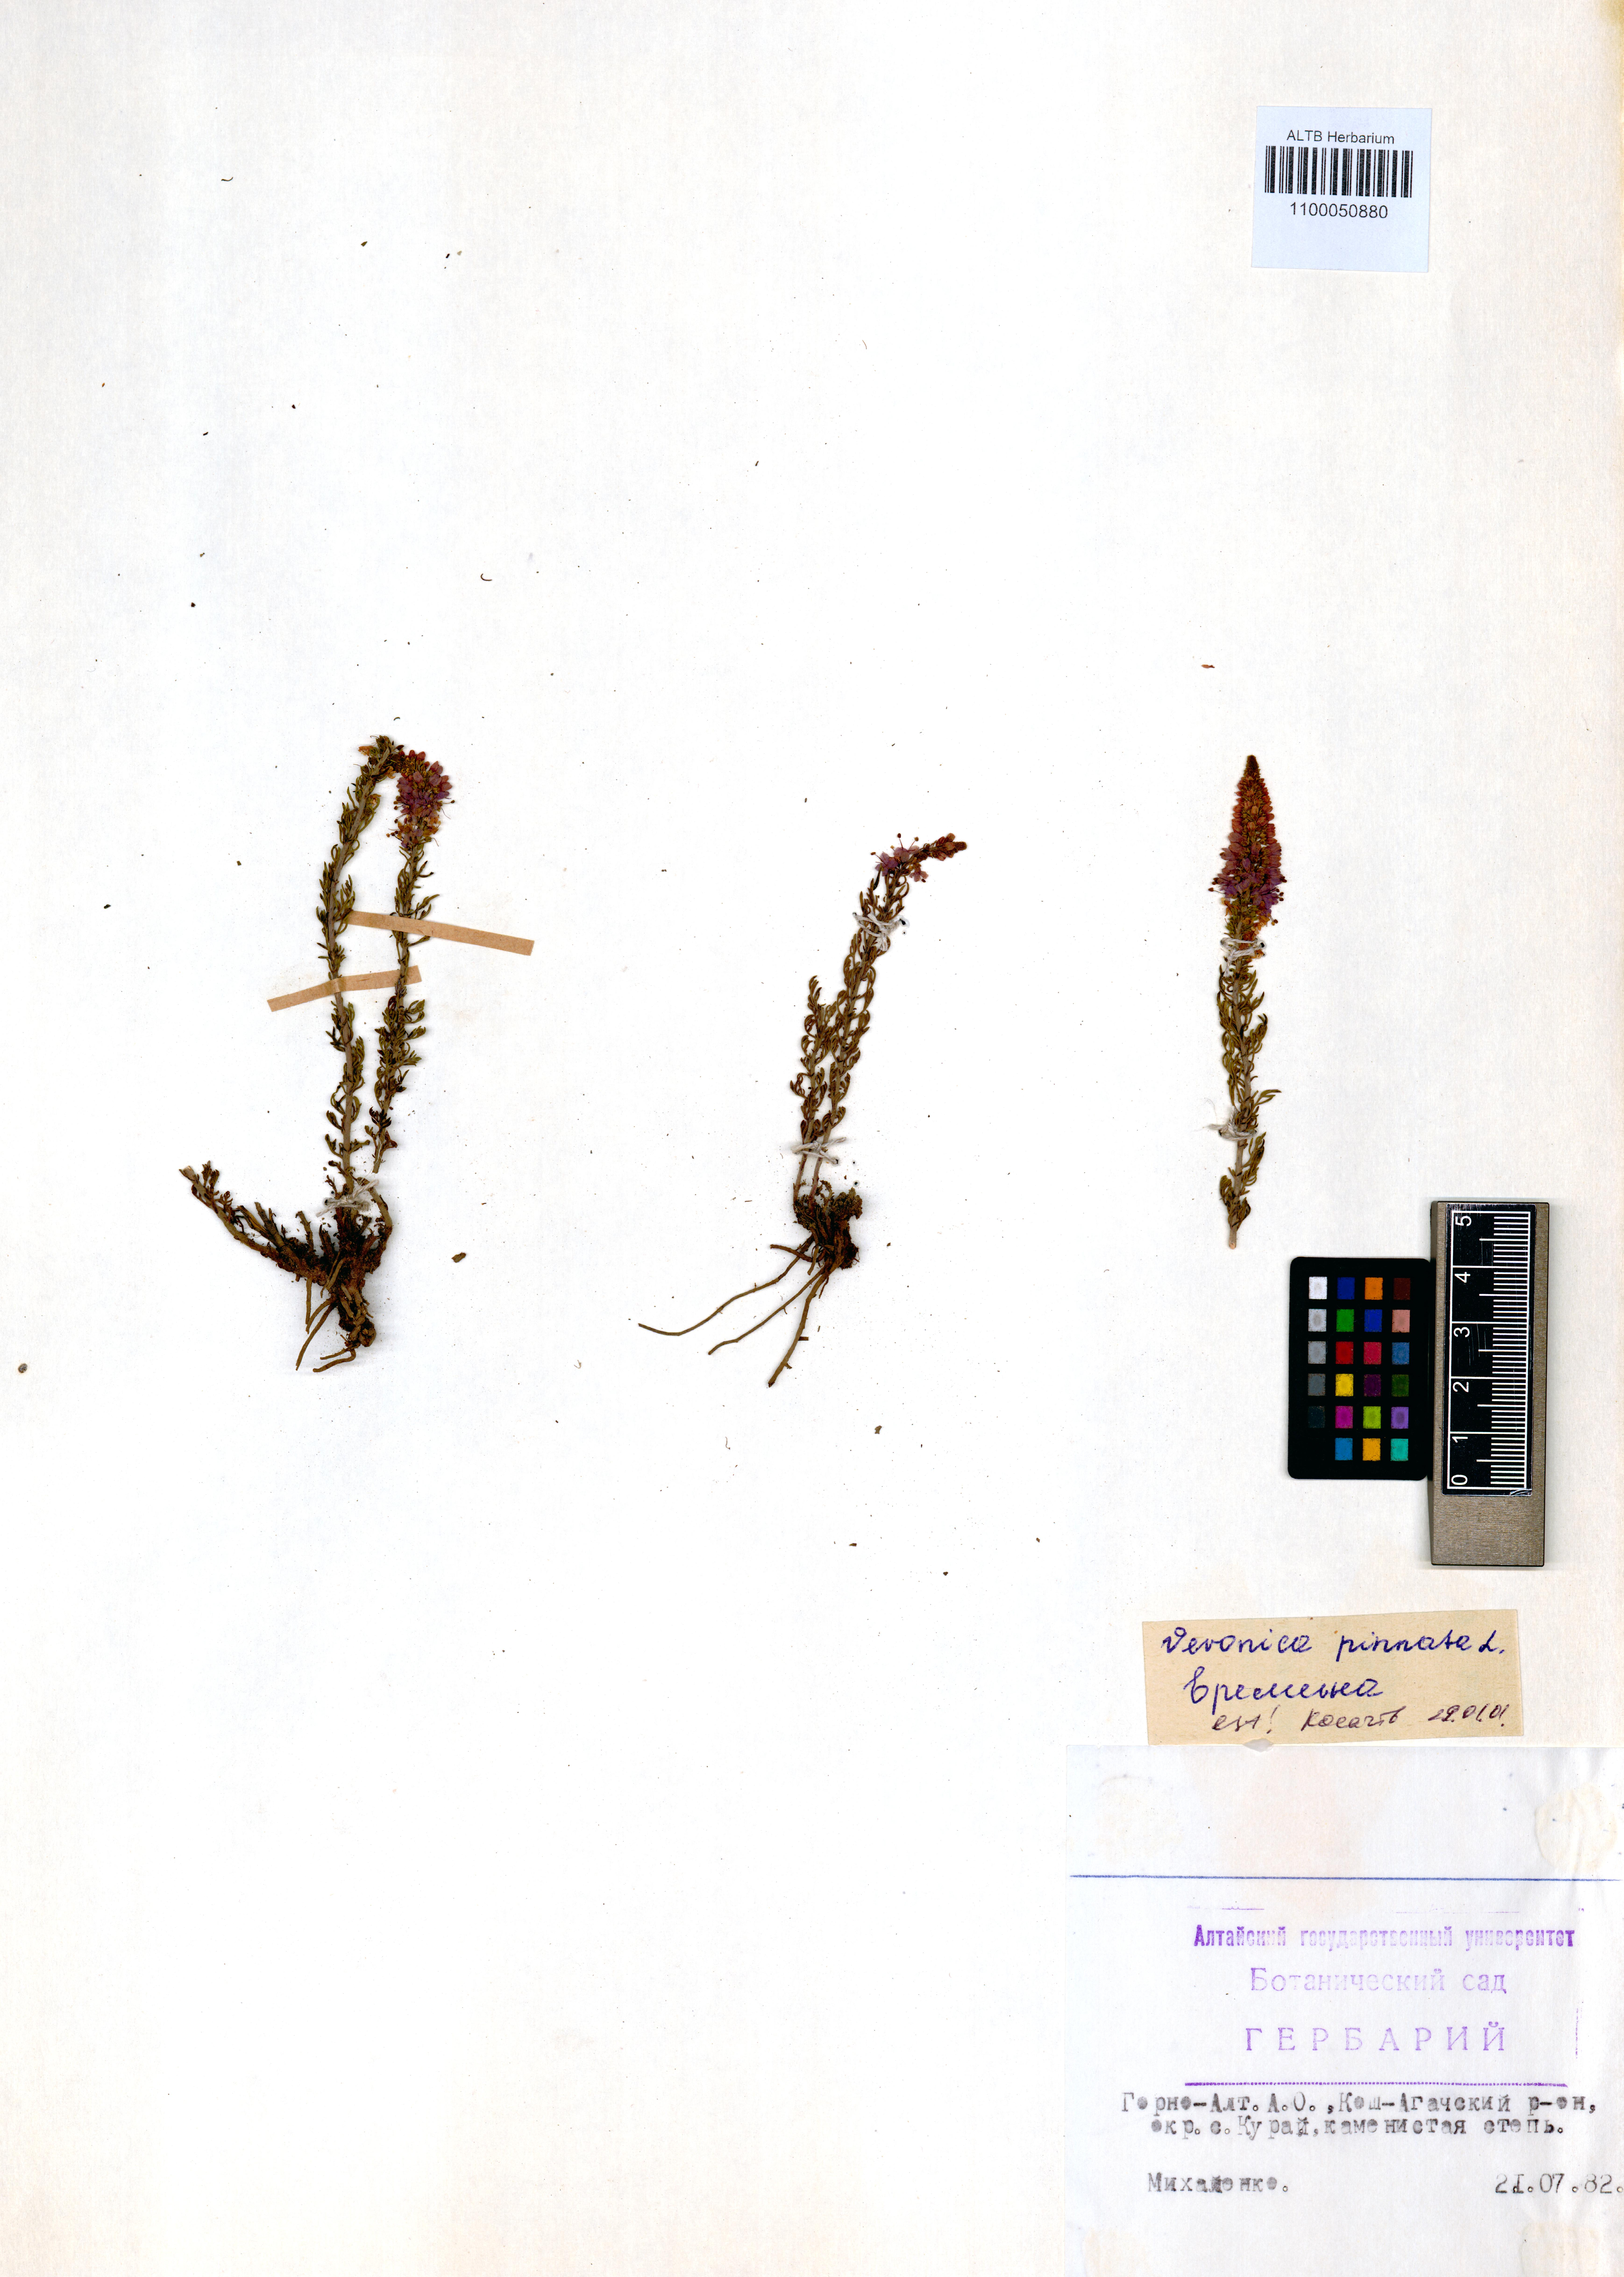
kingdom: Plantae
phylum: Tracheophyta
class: Magnoliopsida
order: Lamiales
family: Plantaginaceae
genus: Veronica
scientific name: Veronica pinnata
